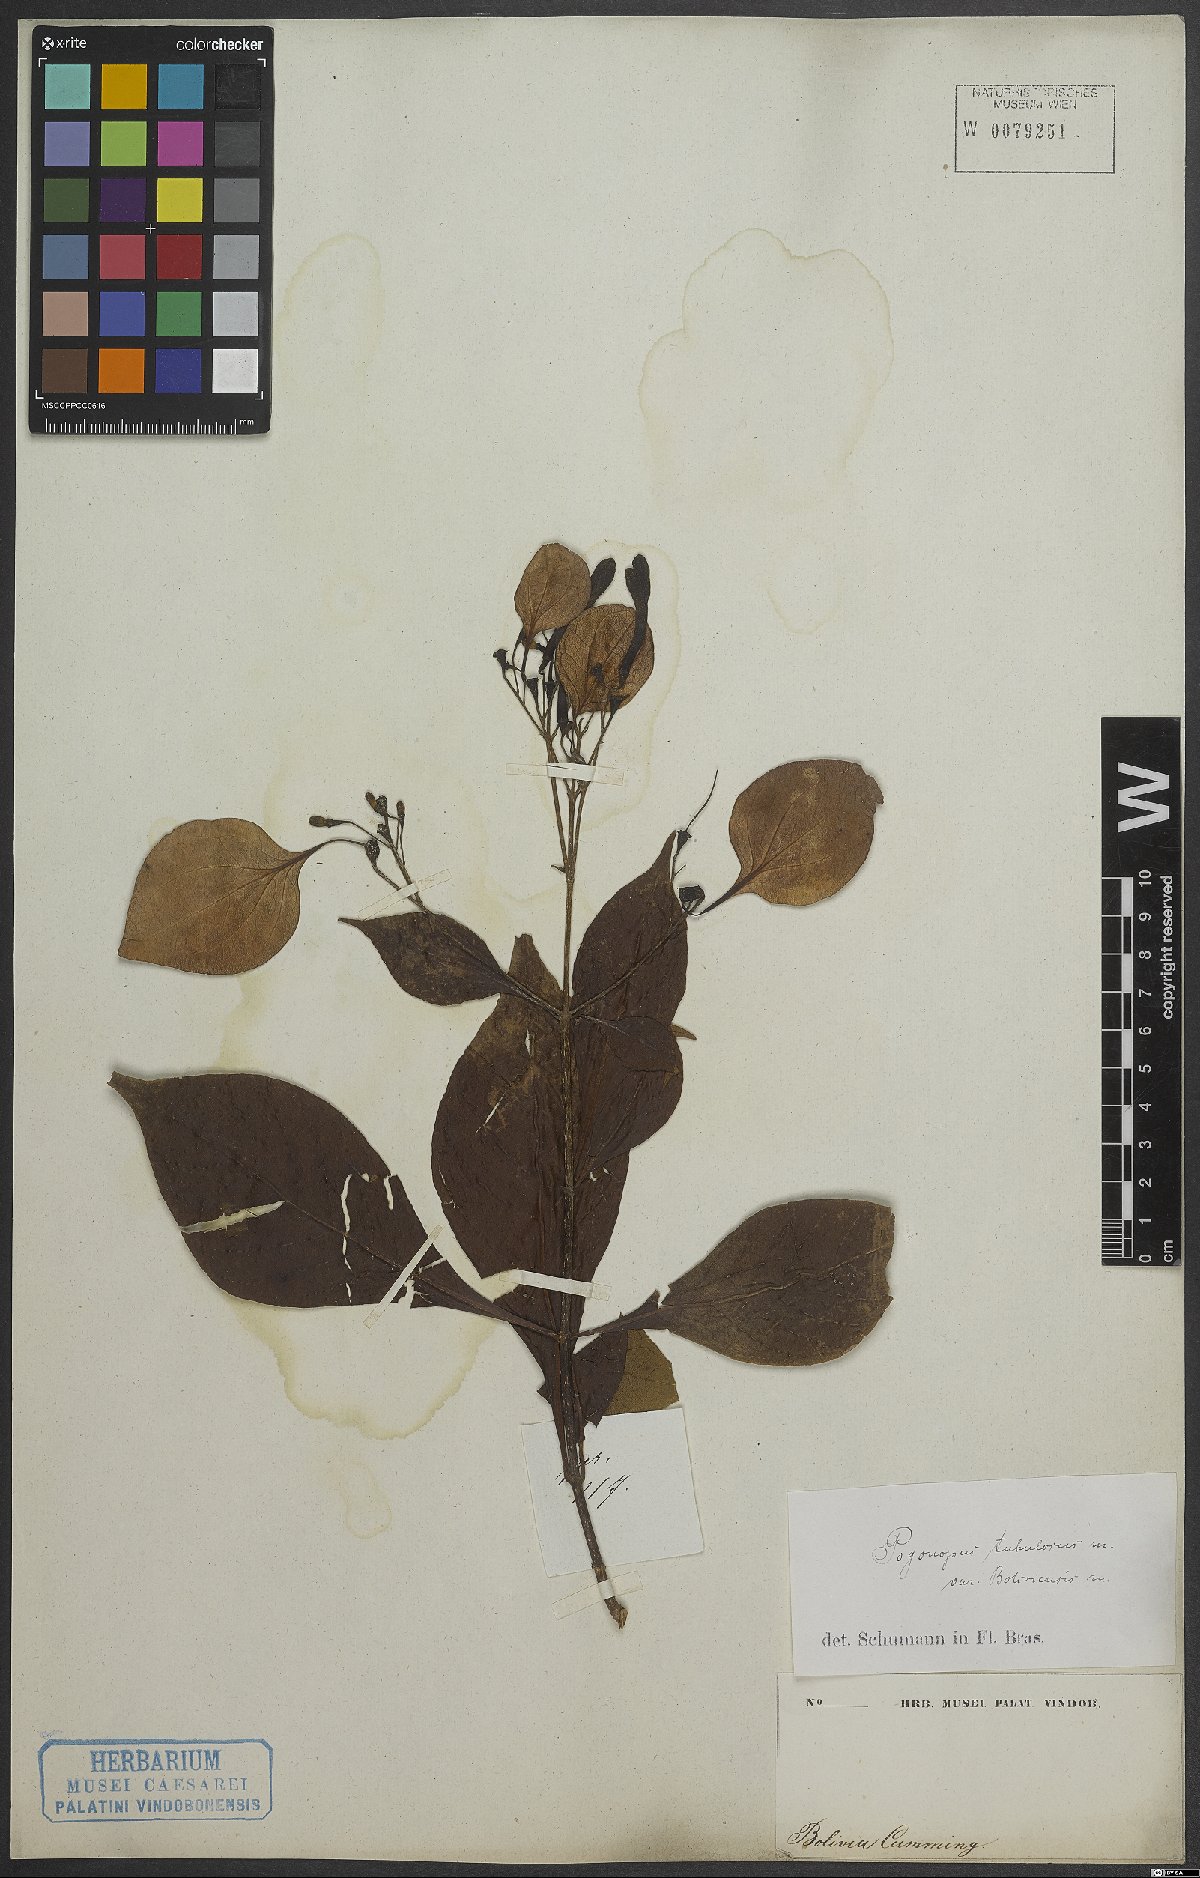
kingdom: Plantae
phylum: Tracheophyta
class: Magnoliopsida
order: Gentianales
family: Rubiaceae
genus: Pogonopus
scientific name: Pogonopus tubulosus
